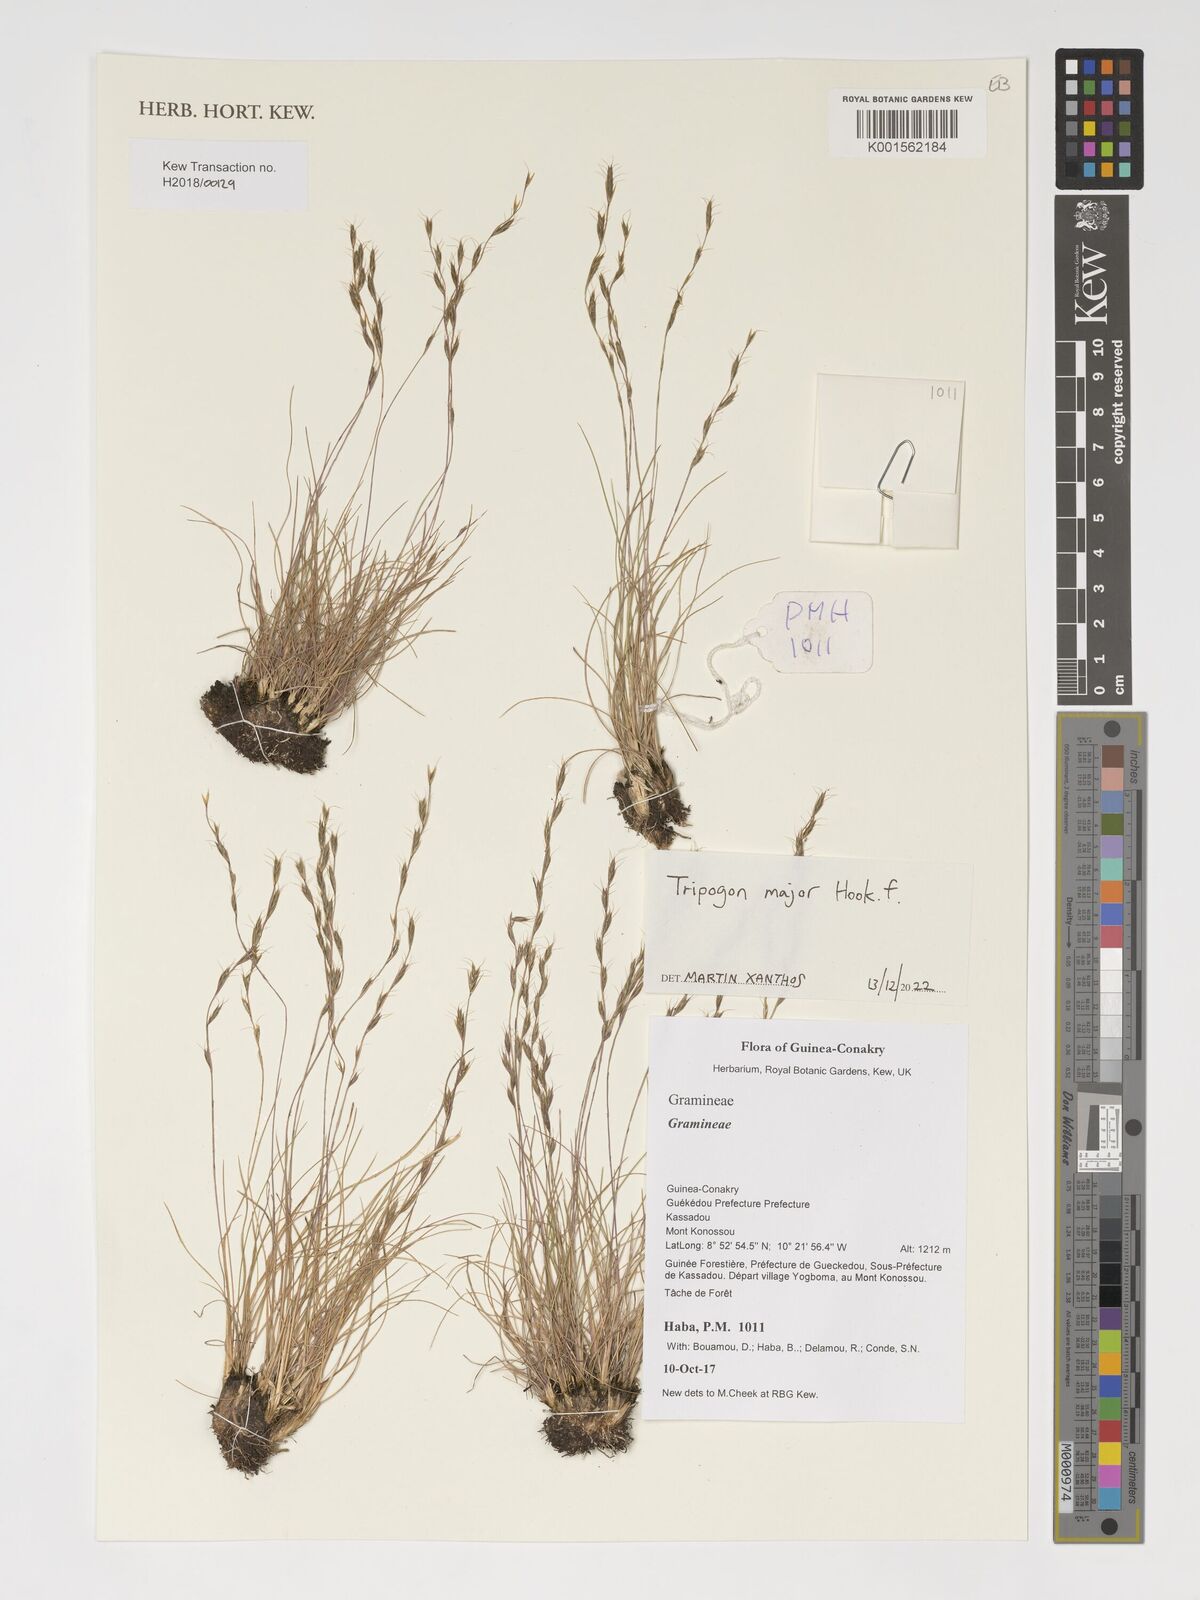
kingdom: Plantae
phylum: Tracheophyta
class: Liliopsida
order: Poales
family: Poaceae
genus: Tripogon
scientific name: Tripogon major
